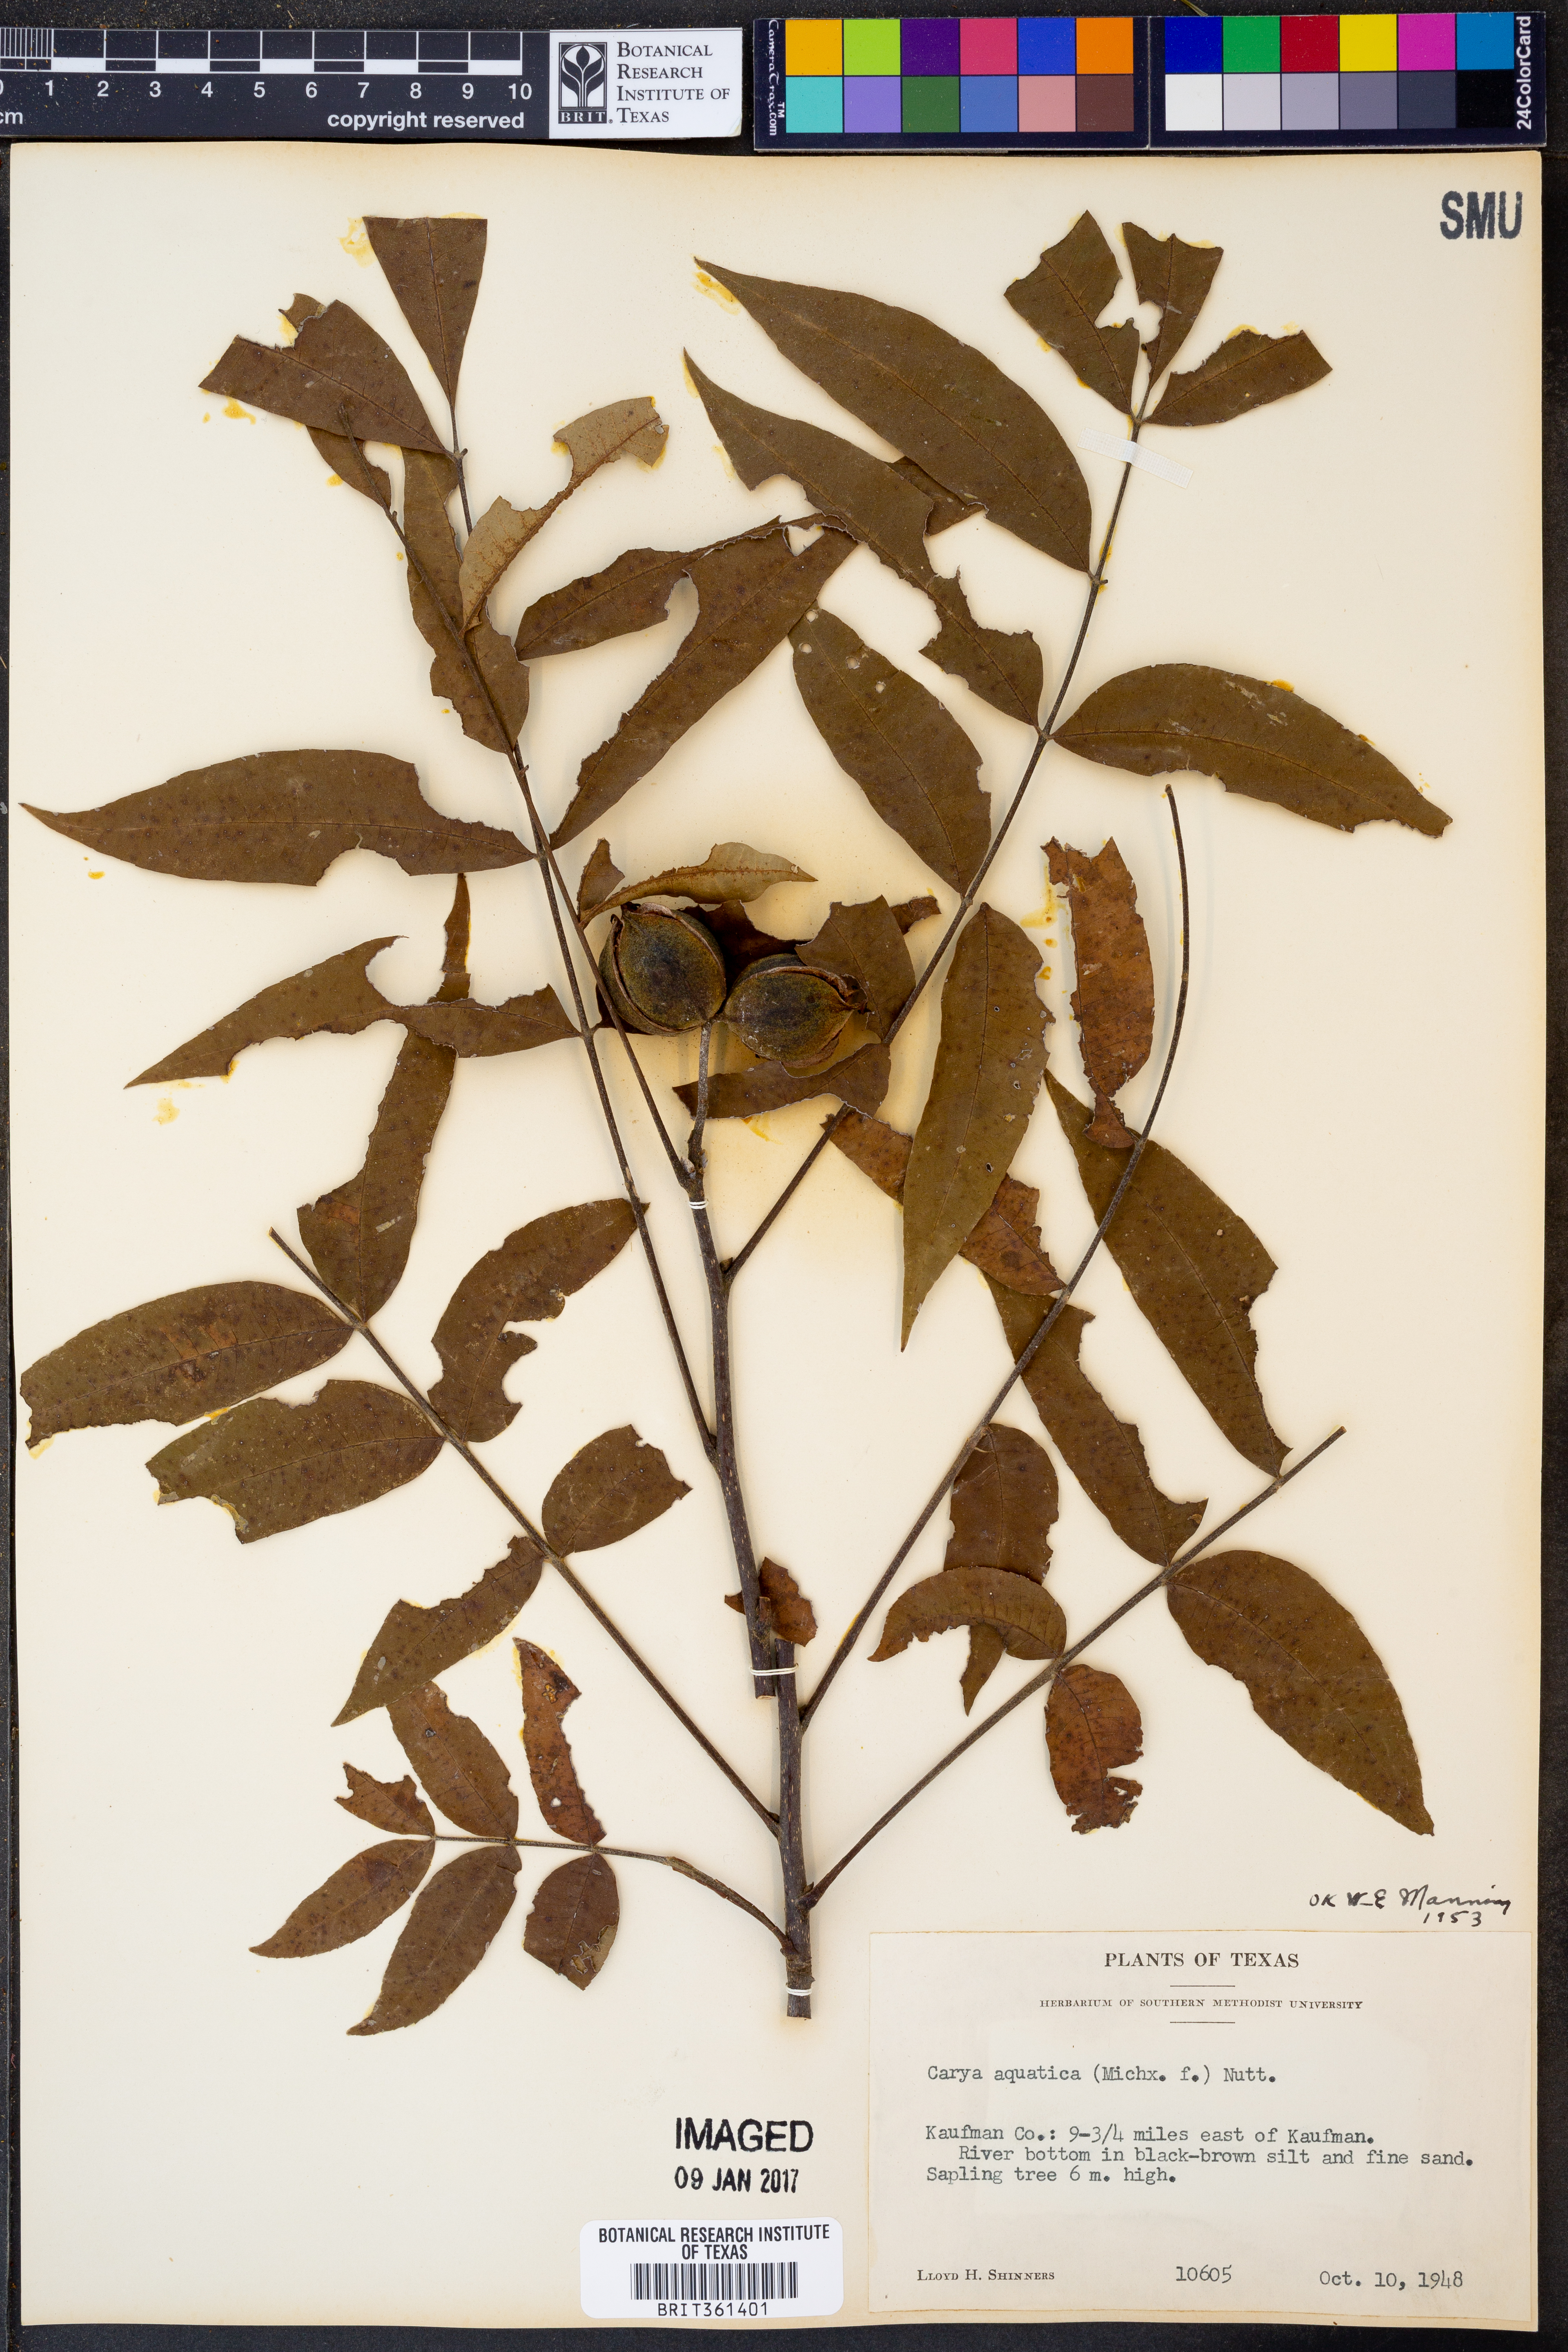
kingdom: Plantae
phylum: Tracheophyta
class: Magnoliopsida
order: Fagales
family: Juglandaceae
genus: Carya
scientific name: Carya aquatica
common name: Water hickory
